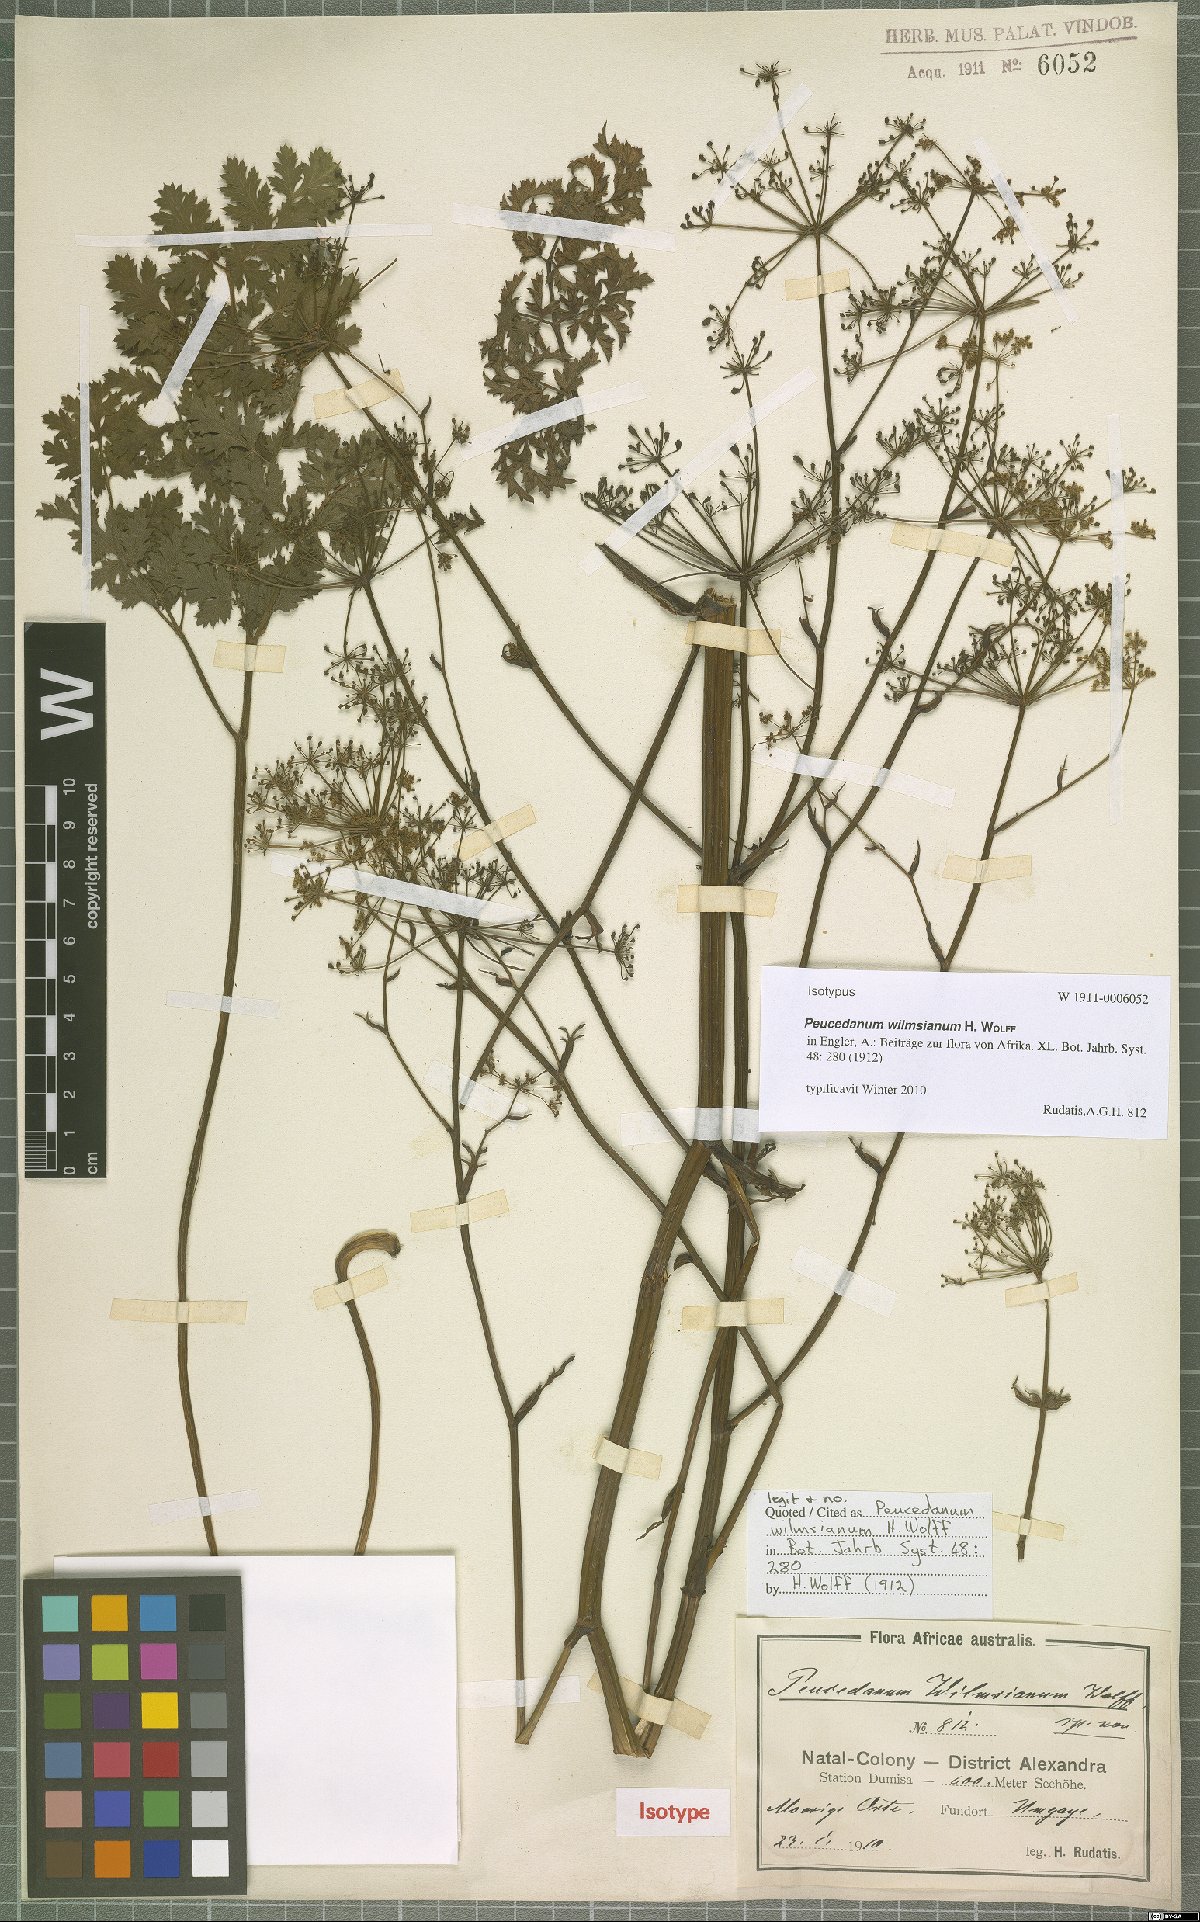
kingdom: Plantae
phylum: Tracheophyta
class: Magnoliopsida
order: Apiales
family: Apiaceae
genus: Afroligusticum
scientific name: Afroligusticum wilmsianum
